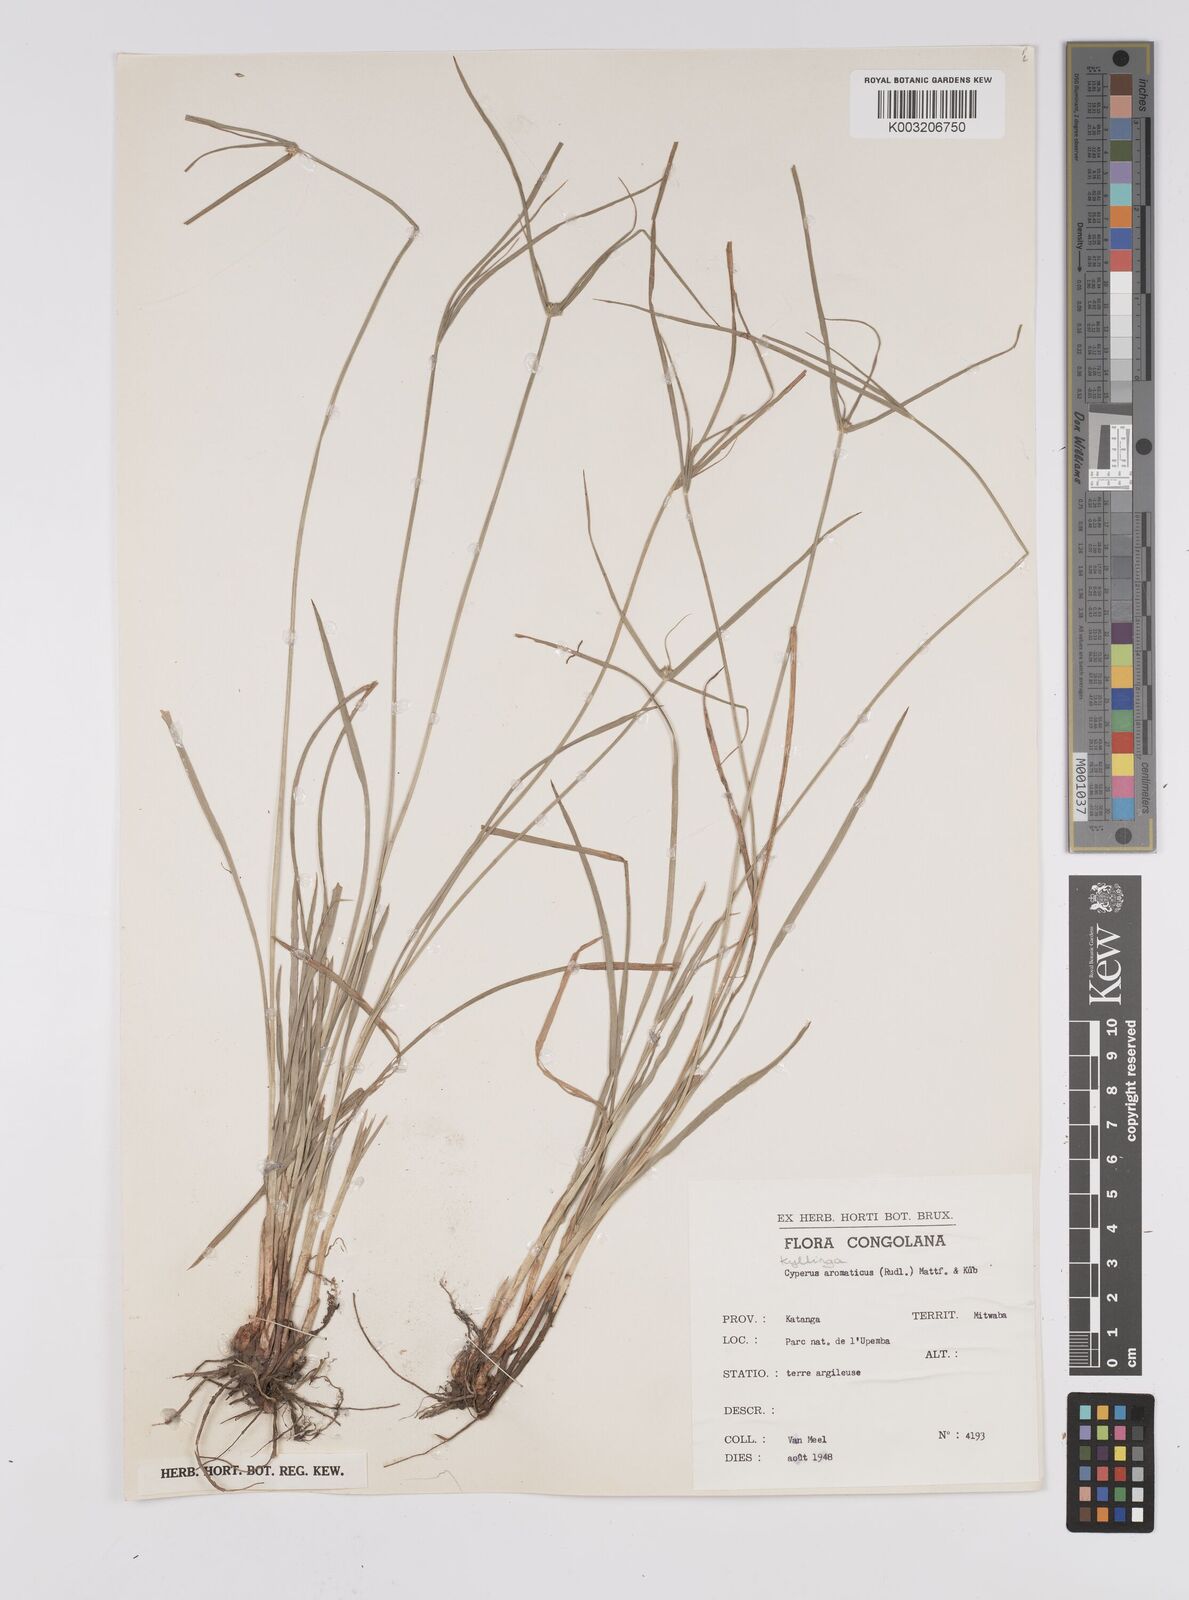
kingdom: Plantae
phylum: Tracheophyta
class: Liliopsida
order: Poales
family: Cyperaceae
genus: Cyperus
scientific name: Cyperus
